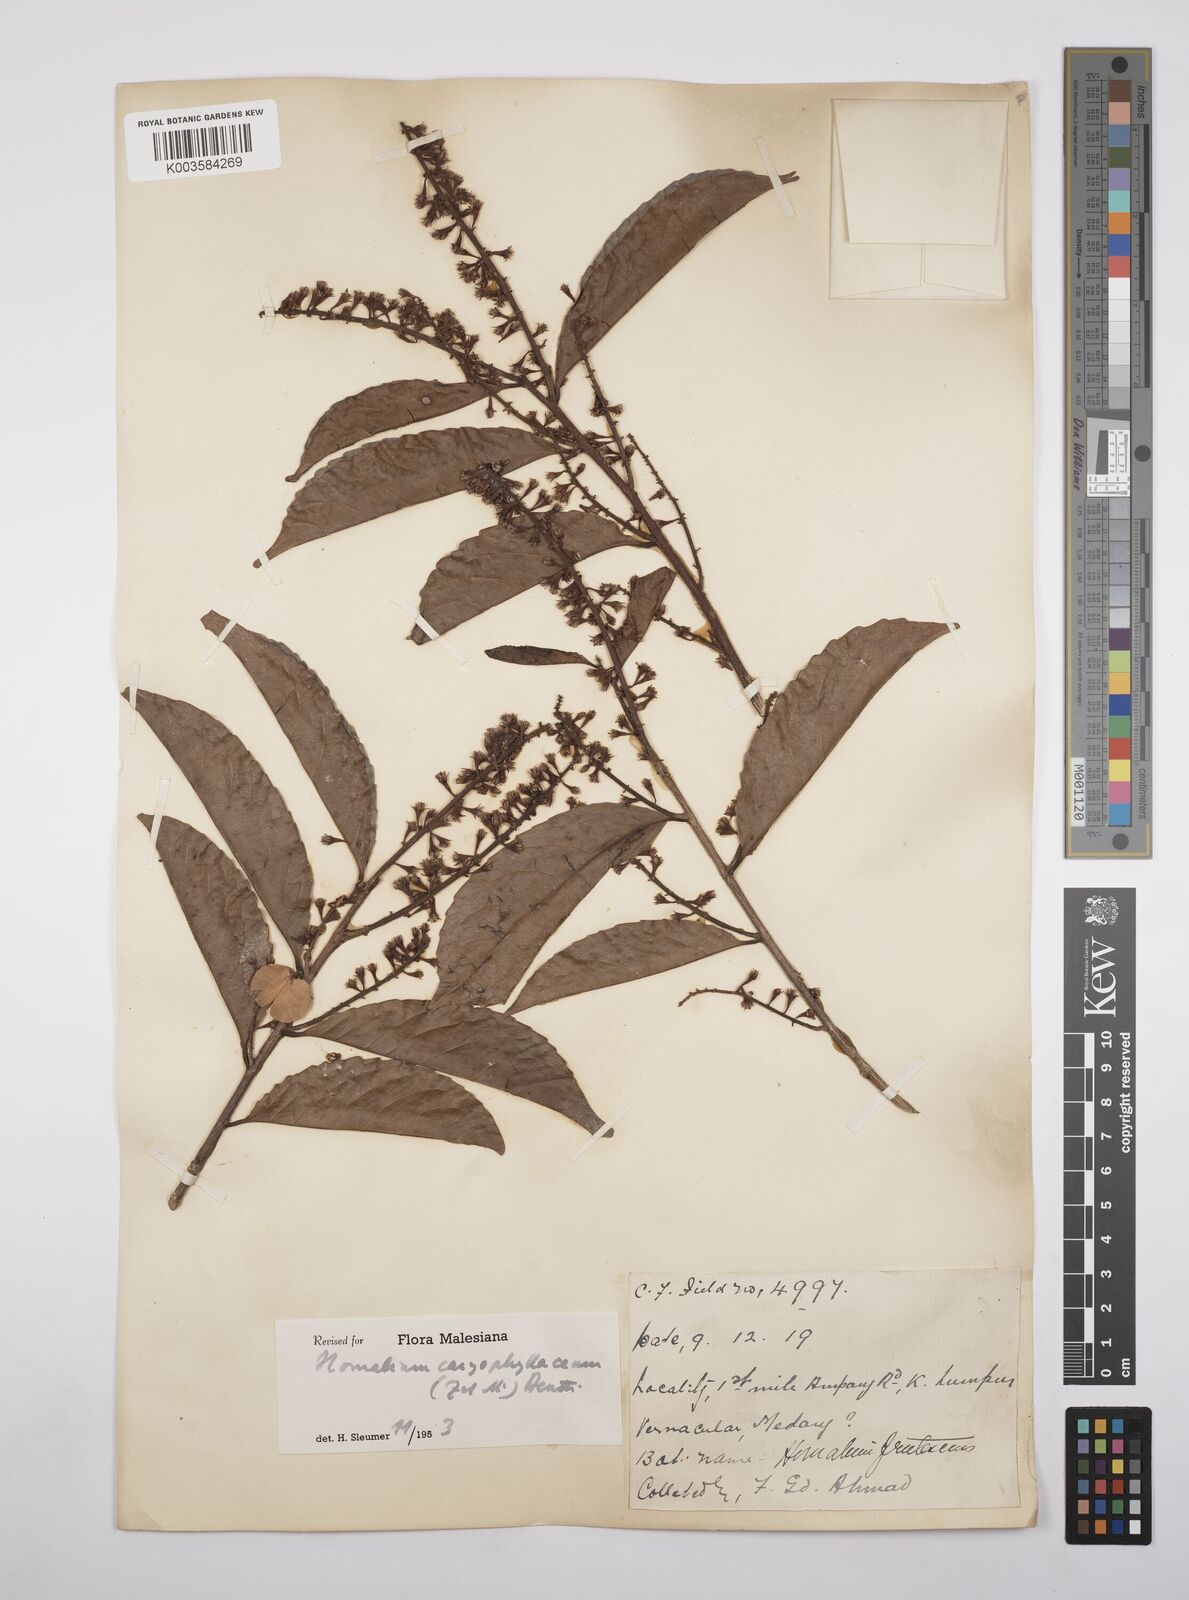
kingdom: Plantae
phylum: Tracheophyta
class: Magnoliopsida
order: Malpighiales
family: Salicaceae
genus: Homalium
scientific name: Homalium caryophyllaceum
